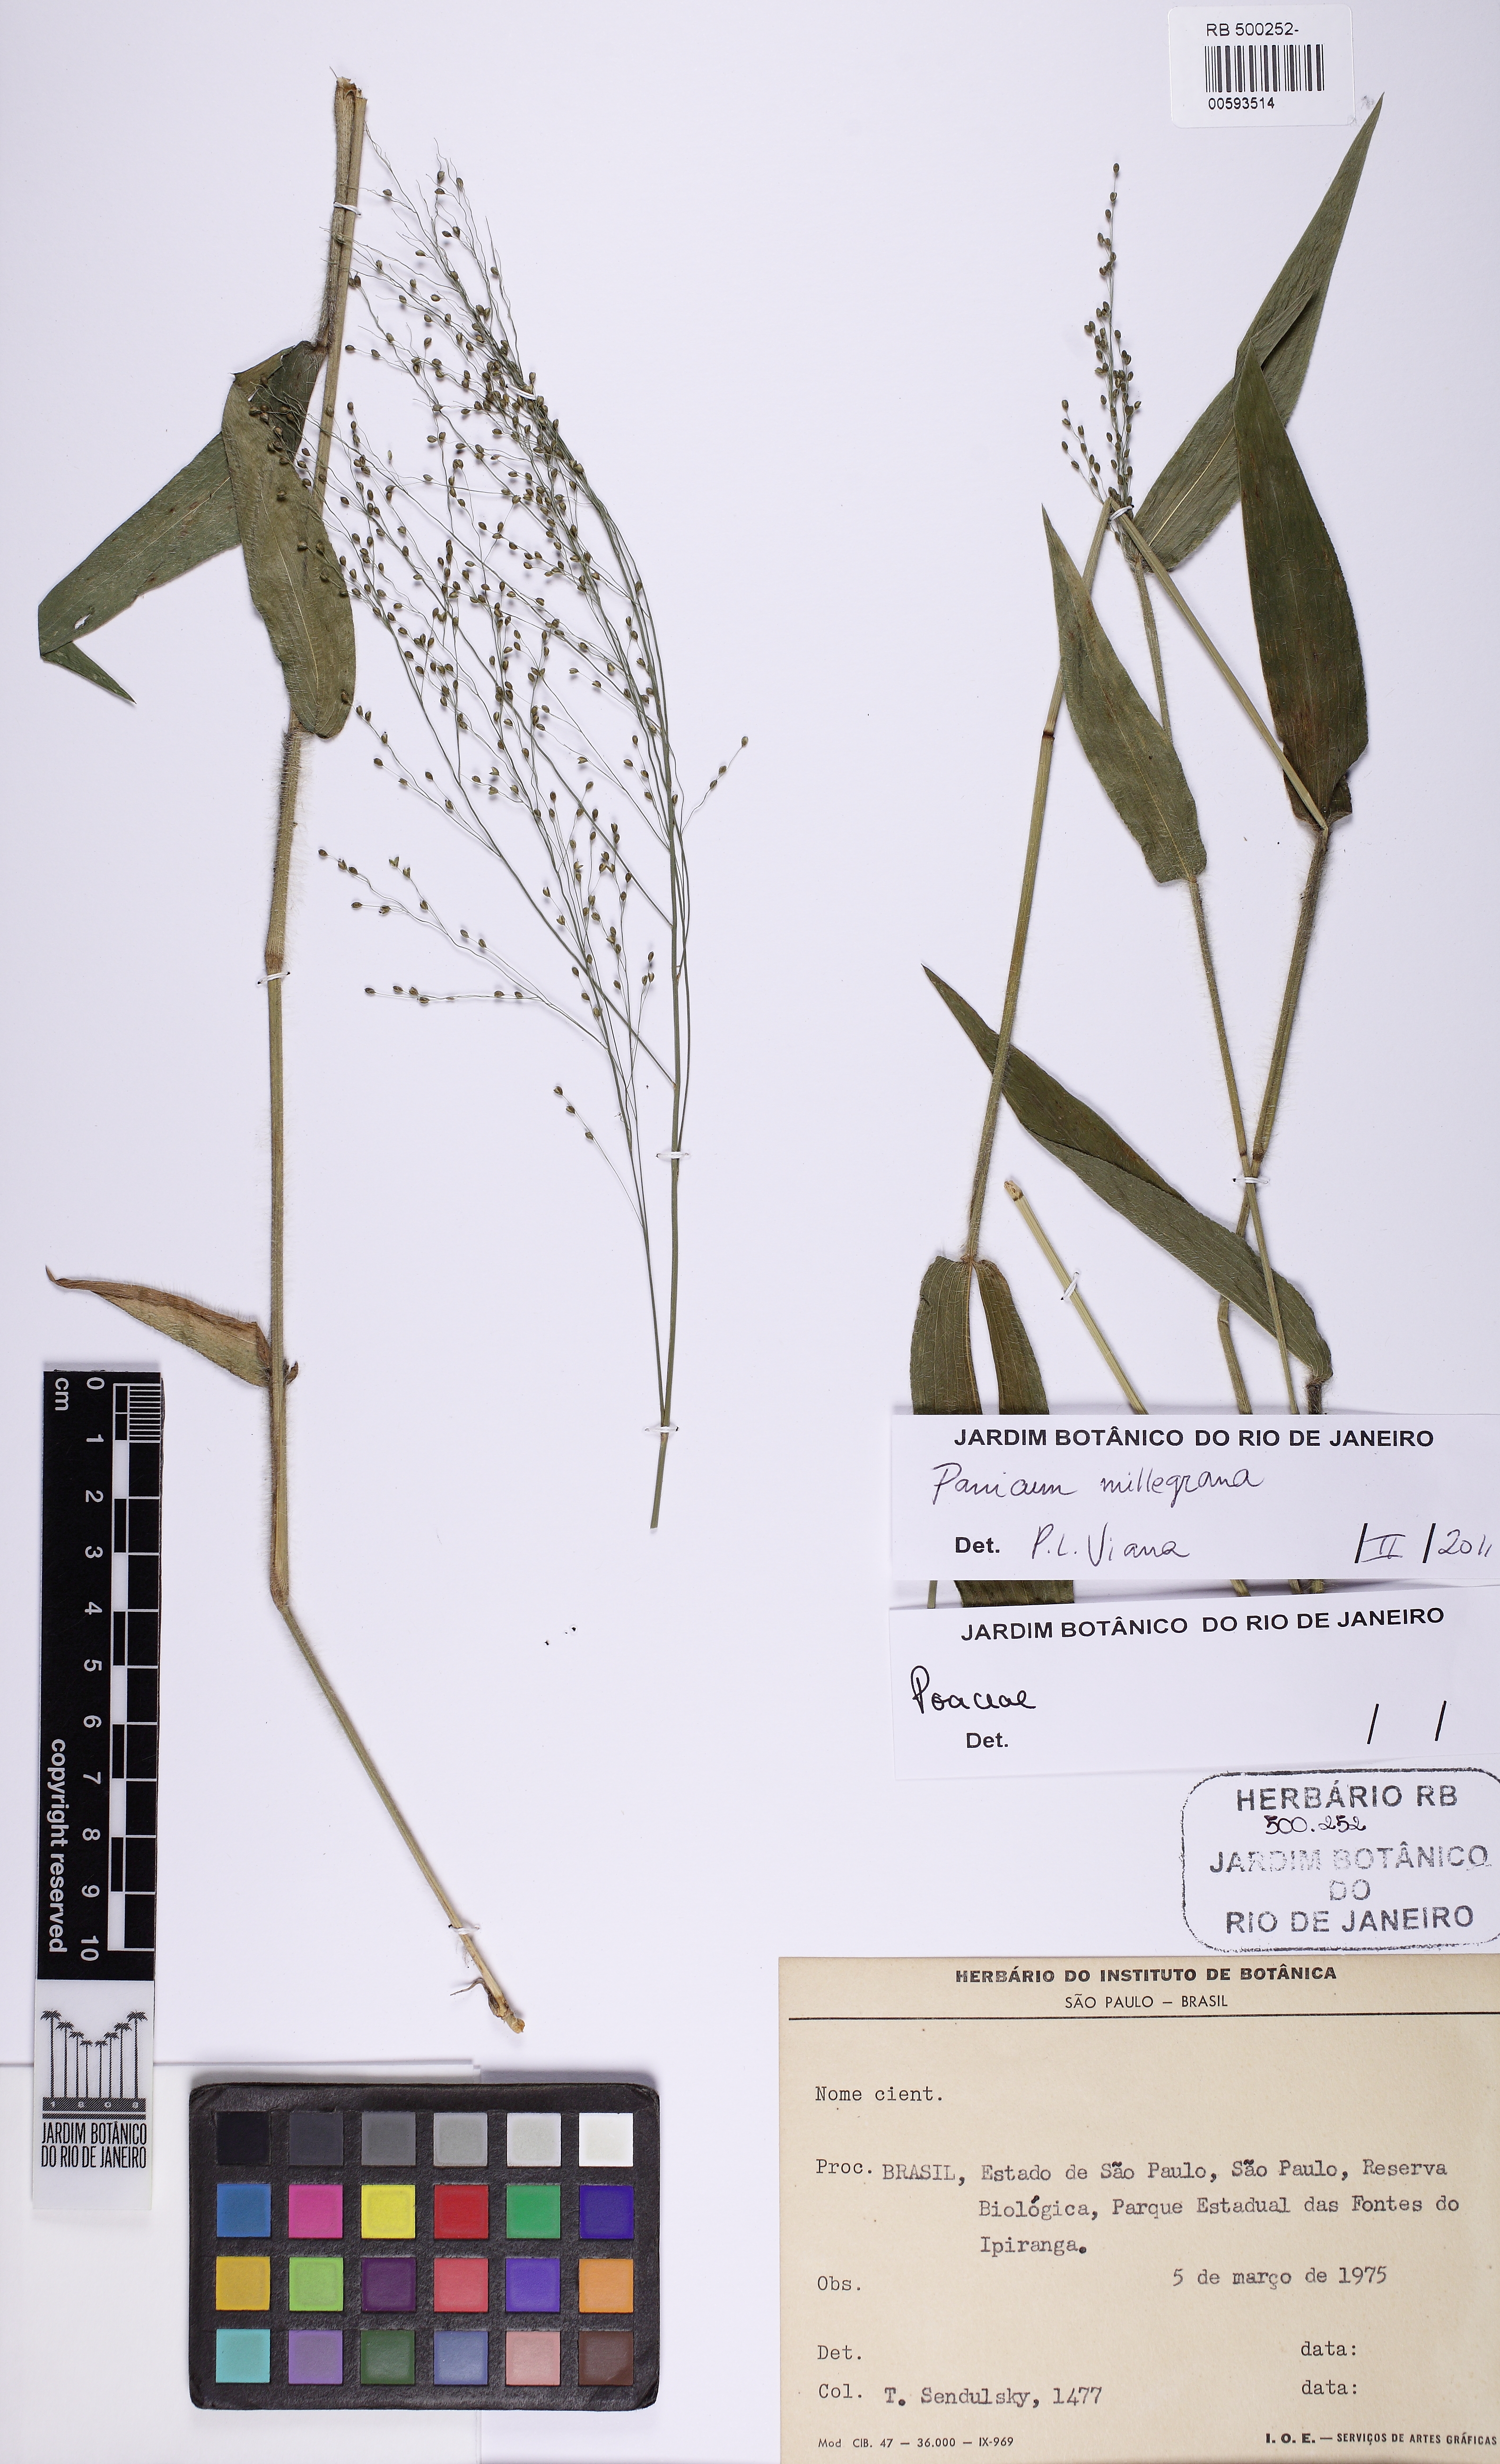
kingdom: Plantae
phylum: Tracheophyta
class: Liliopsida
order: Poales
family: Poaceae
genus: Panicum
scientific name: Panicum millegrana
